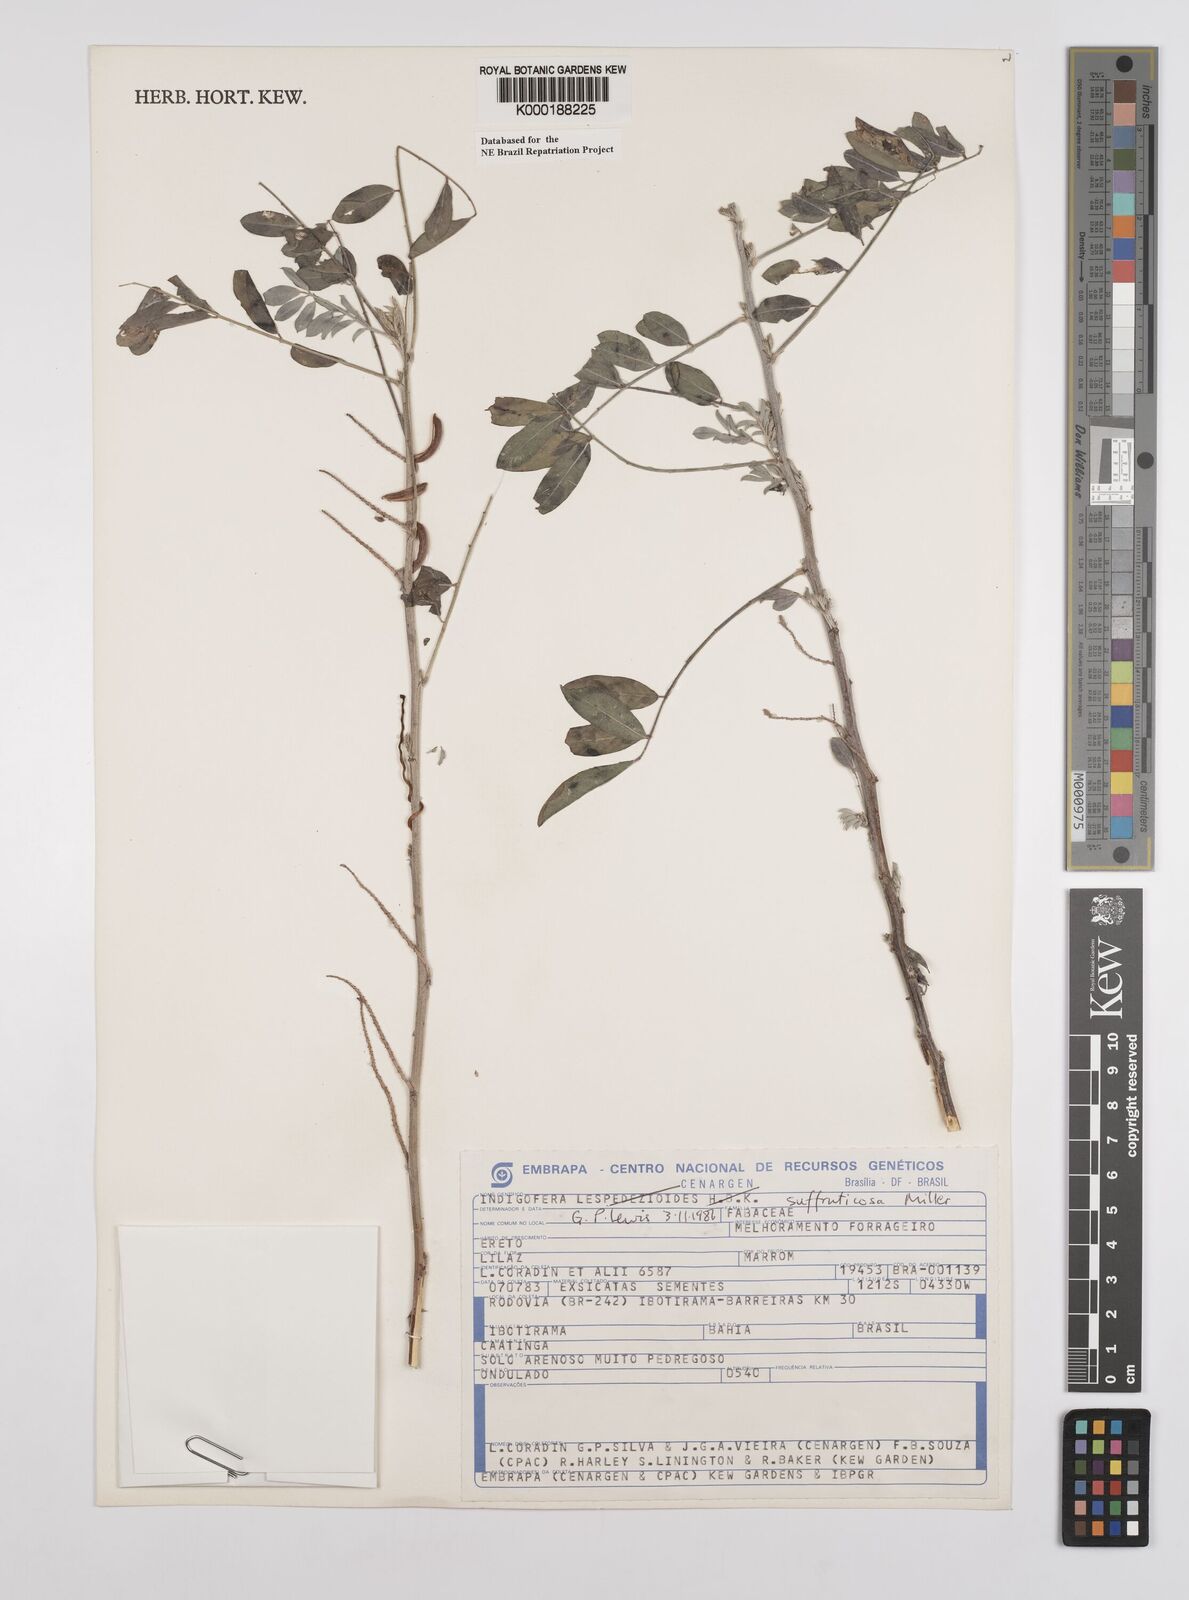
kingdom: Plantae
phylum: Tracheophyta
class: Magnoliopsida
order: Fabales
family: Fabaceae
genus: Indigofera
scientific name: Indigofera suffruticosa
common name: Anil de pasto
